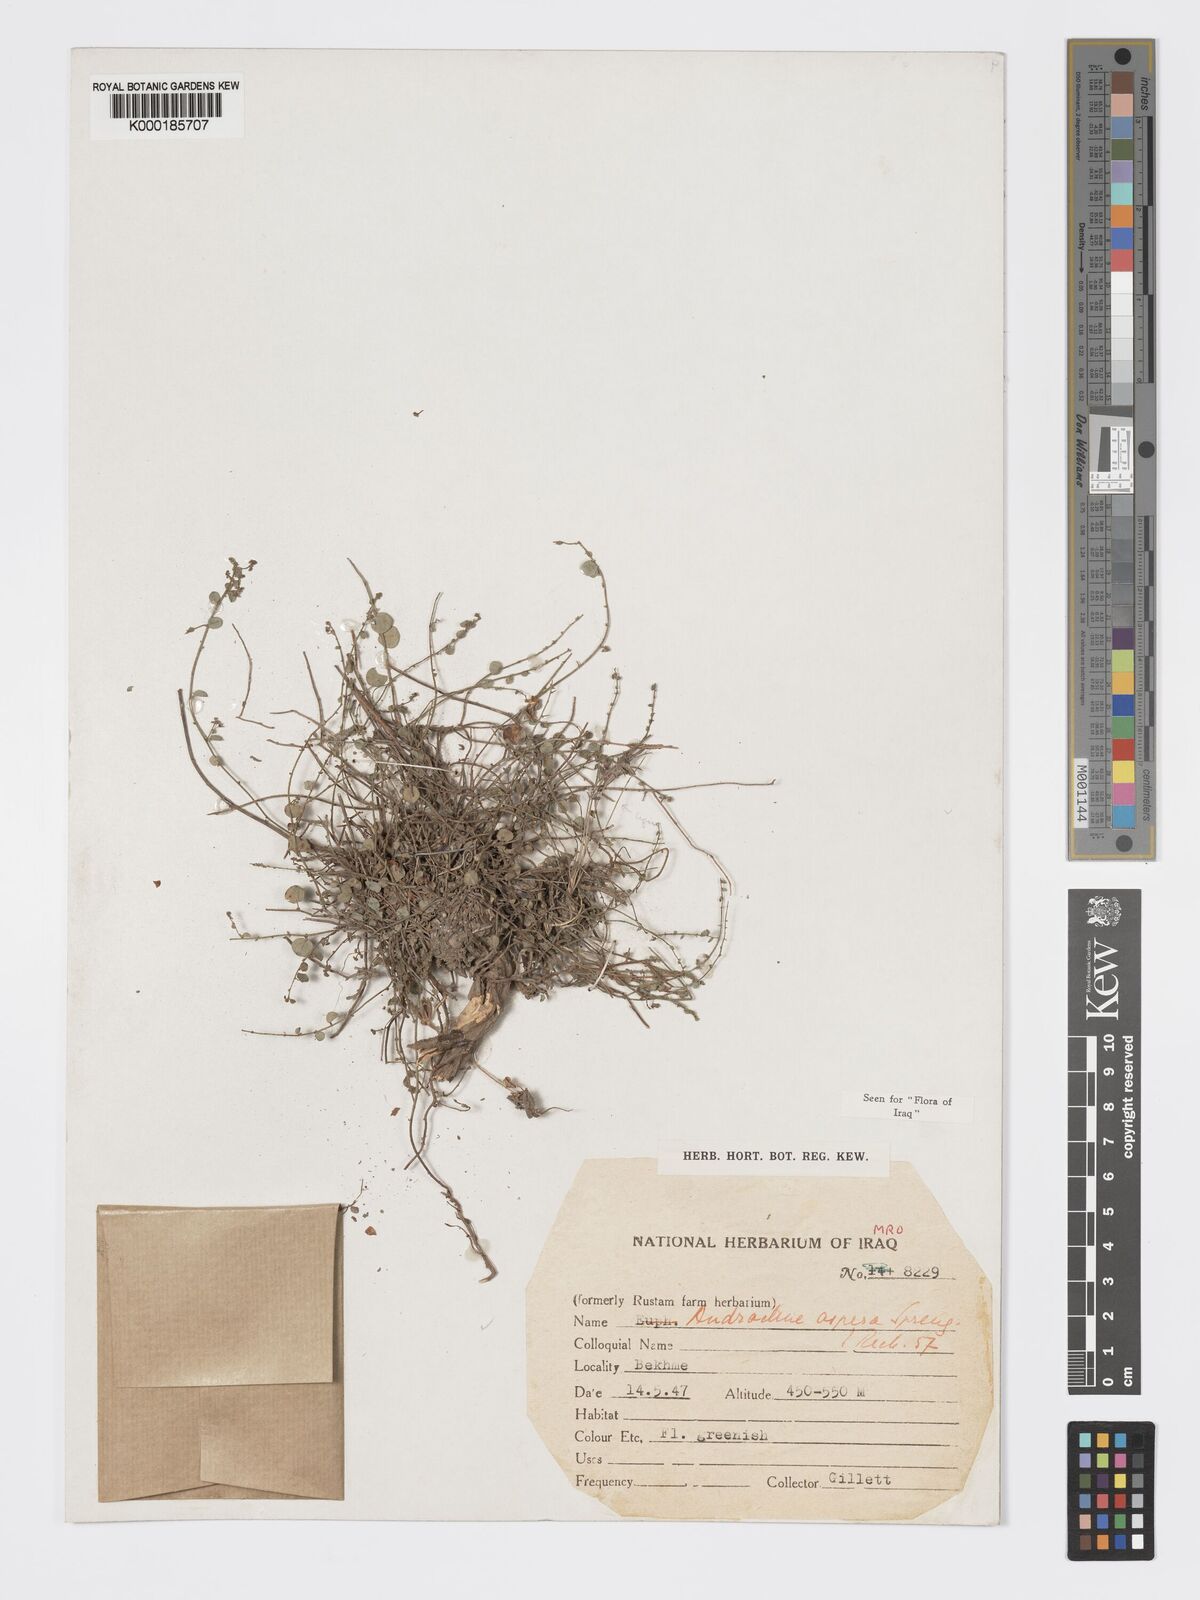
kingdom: Plantae
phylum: Tracheophyta
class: Magnoliopsida
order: Malpighiales
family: Phyllanthaceae
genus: Andrachne
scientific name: Andrachne aspera
